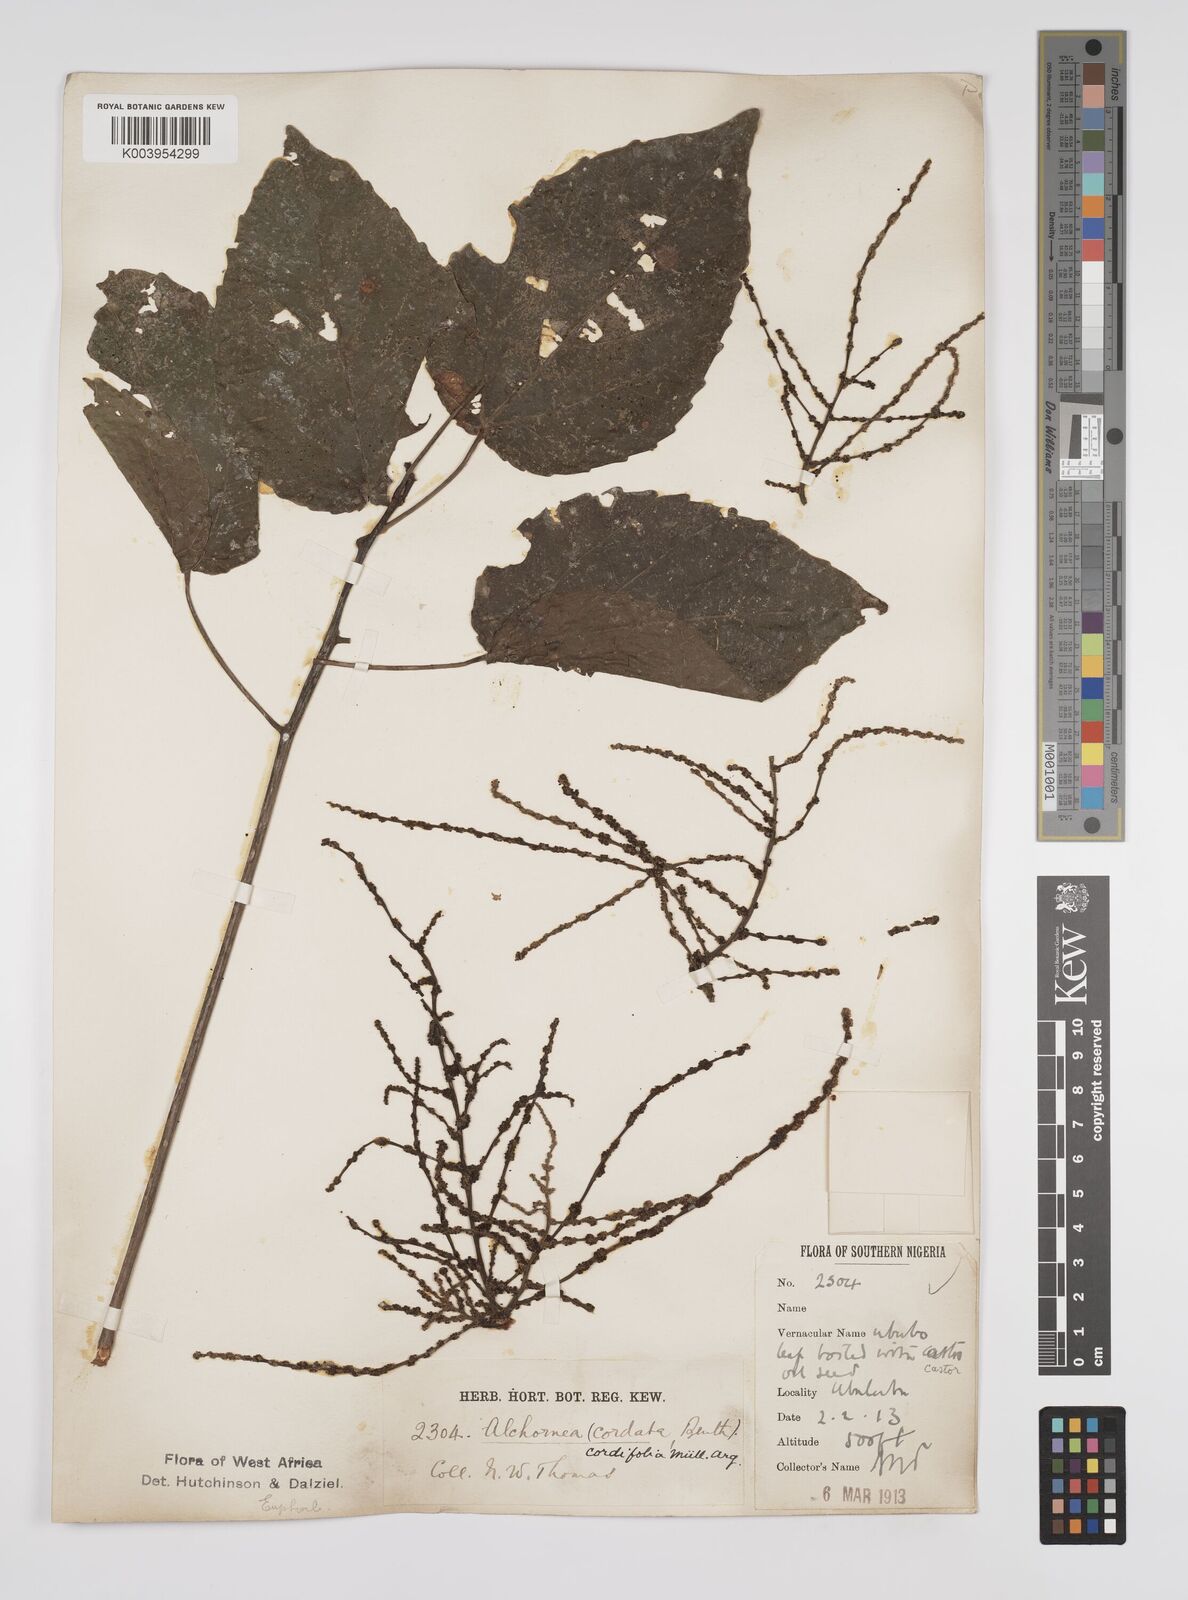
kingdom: Plantae
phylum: Tracheophyta
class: Magnoliopsida
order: Malpighiales
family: Euphorbiaceae
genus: Alchornea
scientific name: Alchornea cordifolia
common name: Christmasbush
